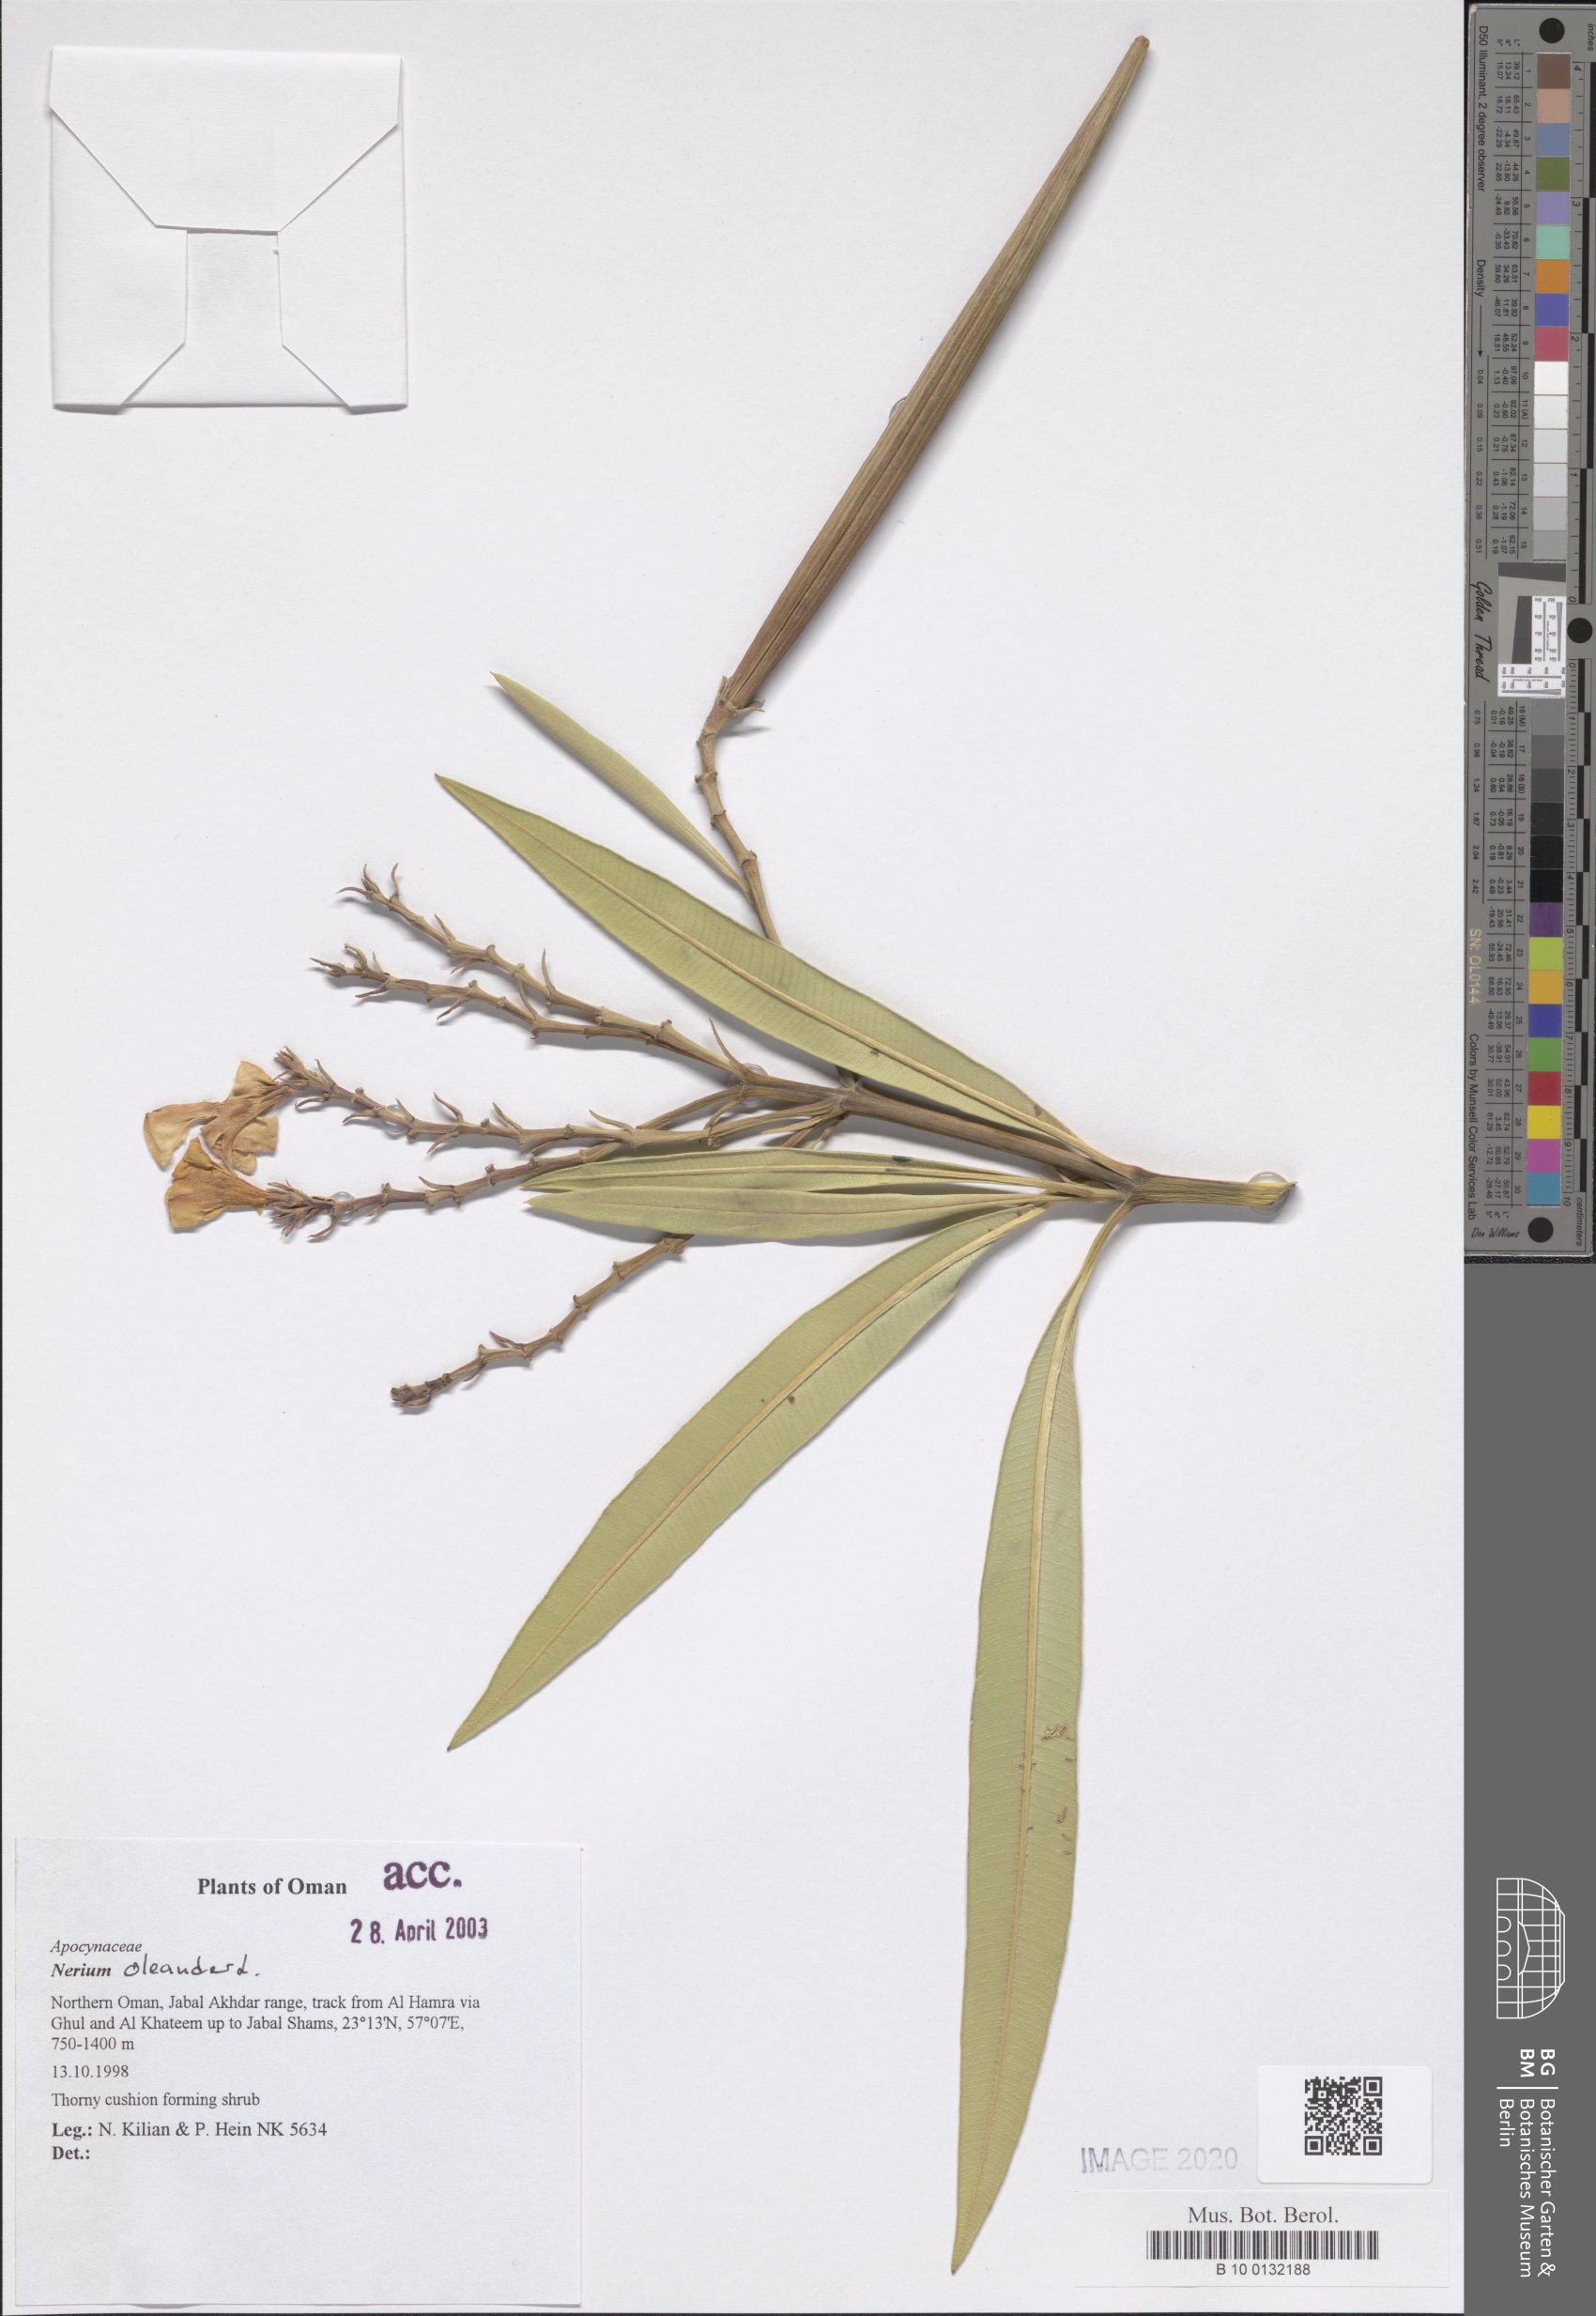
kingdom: Plantae
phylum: Tracheophyta
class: Magnoliopsida
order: Gentianales
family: Apocynaceae
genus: Nerium
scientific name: Nerium oleander
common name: Oleander
